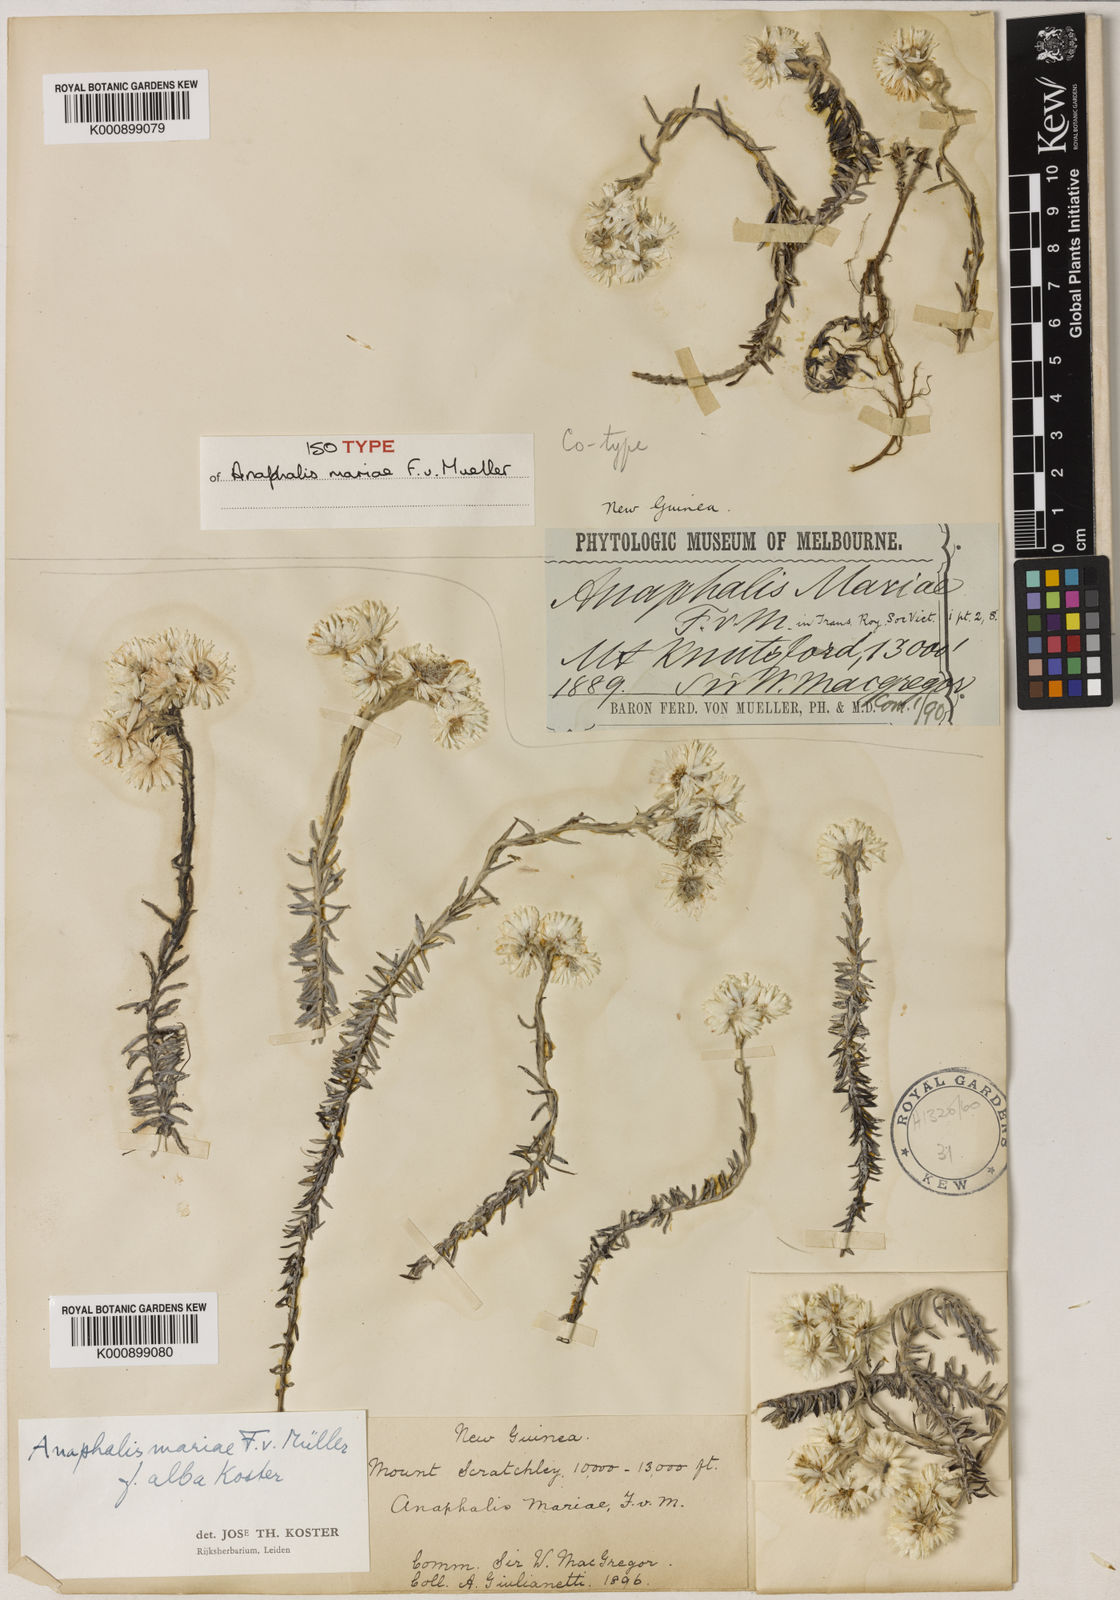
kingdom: Plantae
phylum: Tracheophyta
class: Magnoliopsida
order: Asterales
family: Asteraceae
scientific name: Asteraceae
